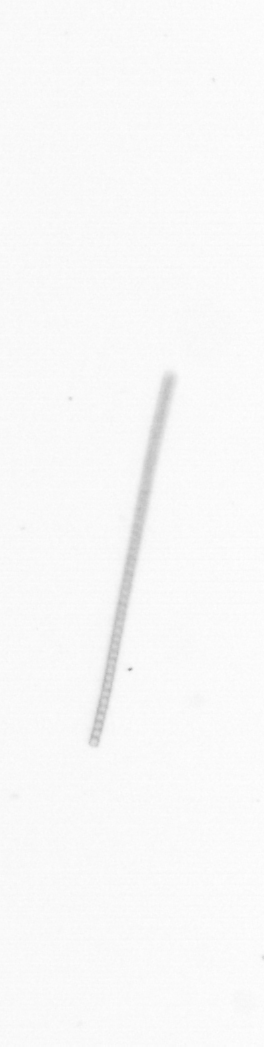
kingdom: Chromista
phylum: Ochrophyta
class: Bacillariophyceae
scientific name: Bacillariophyceae
